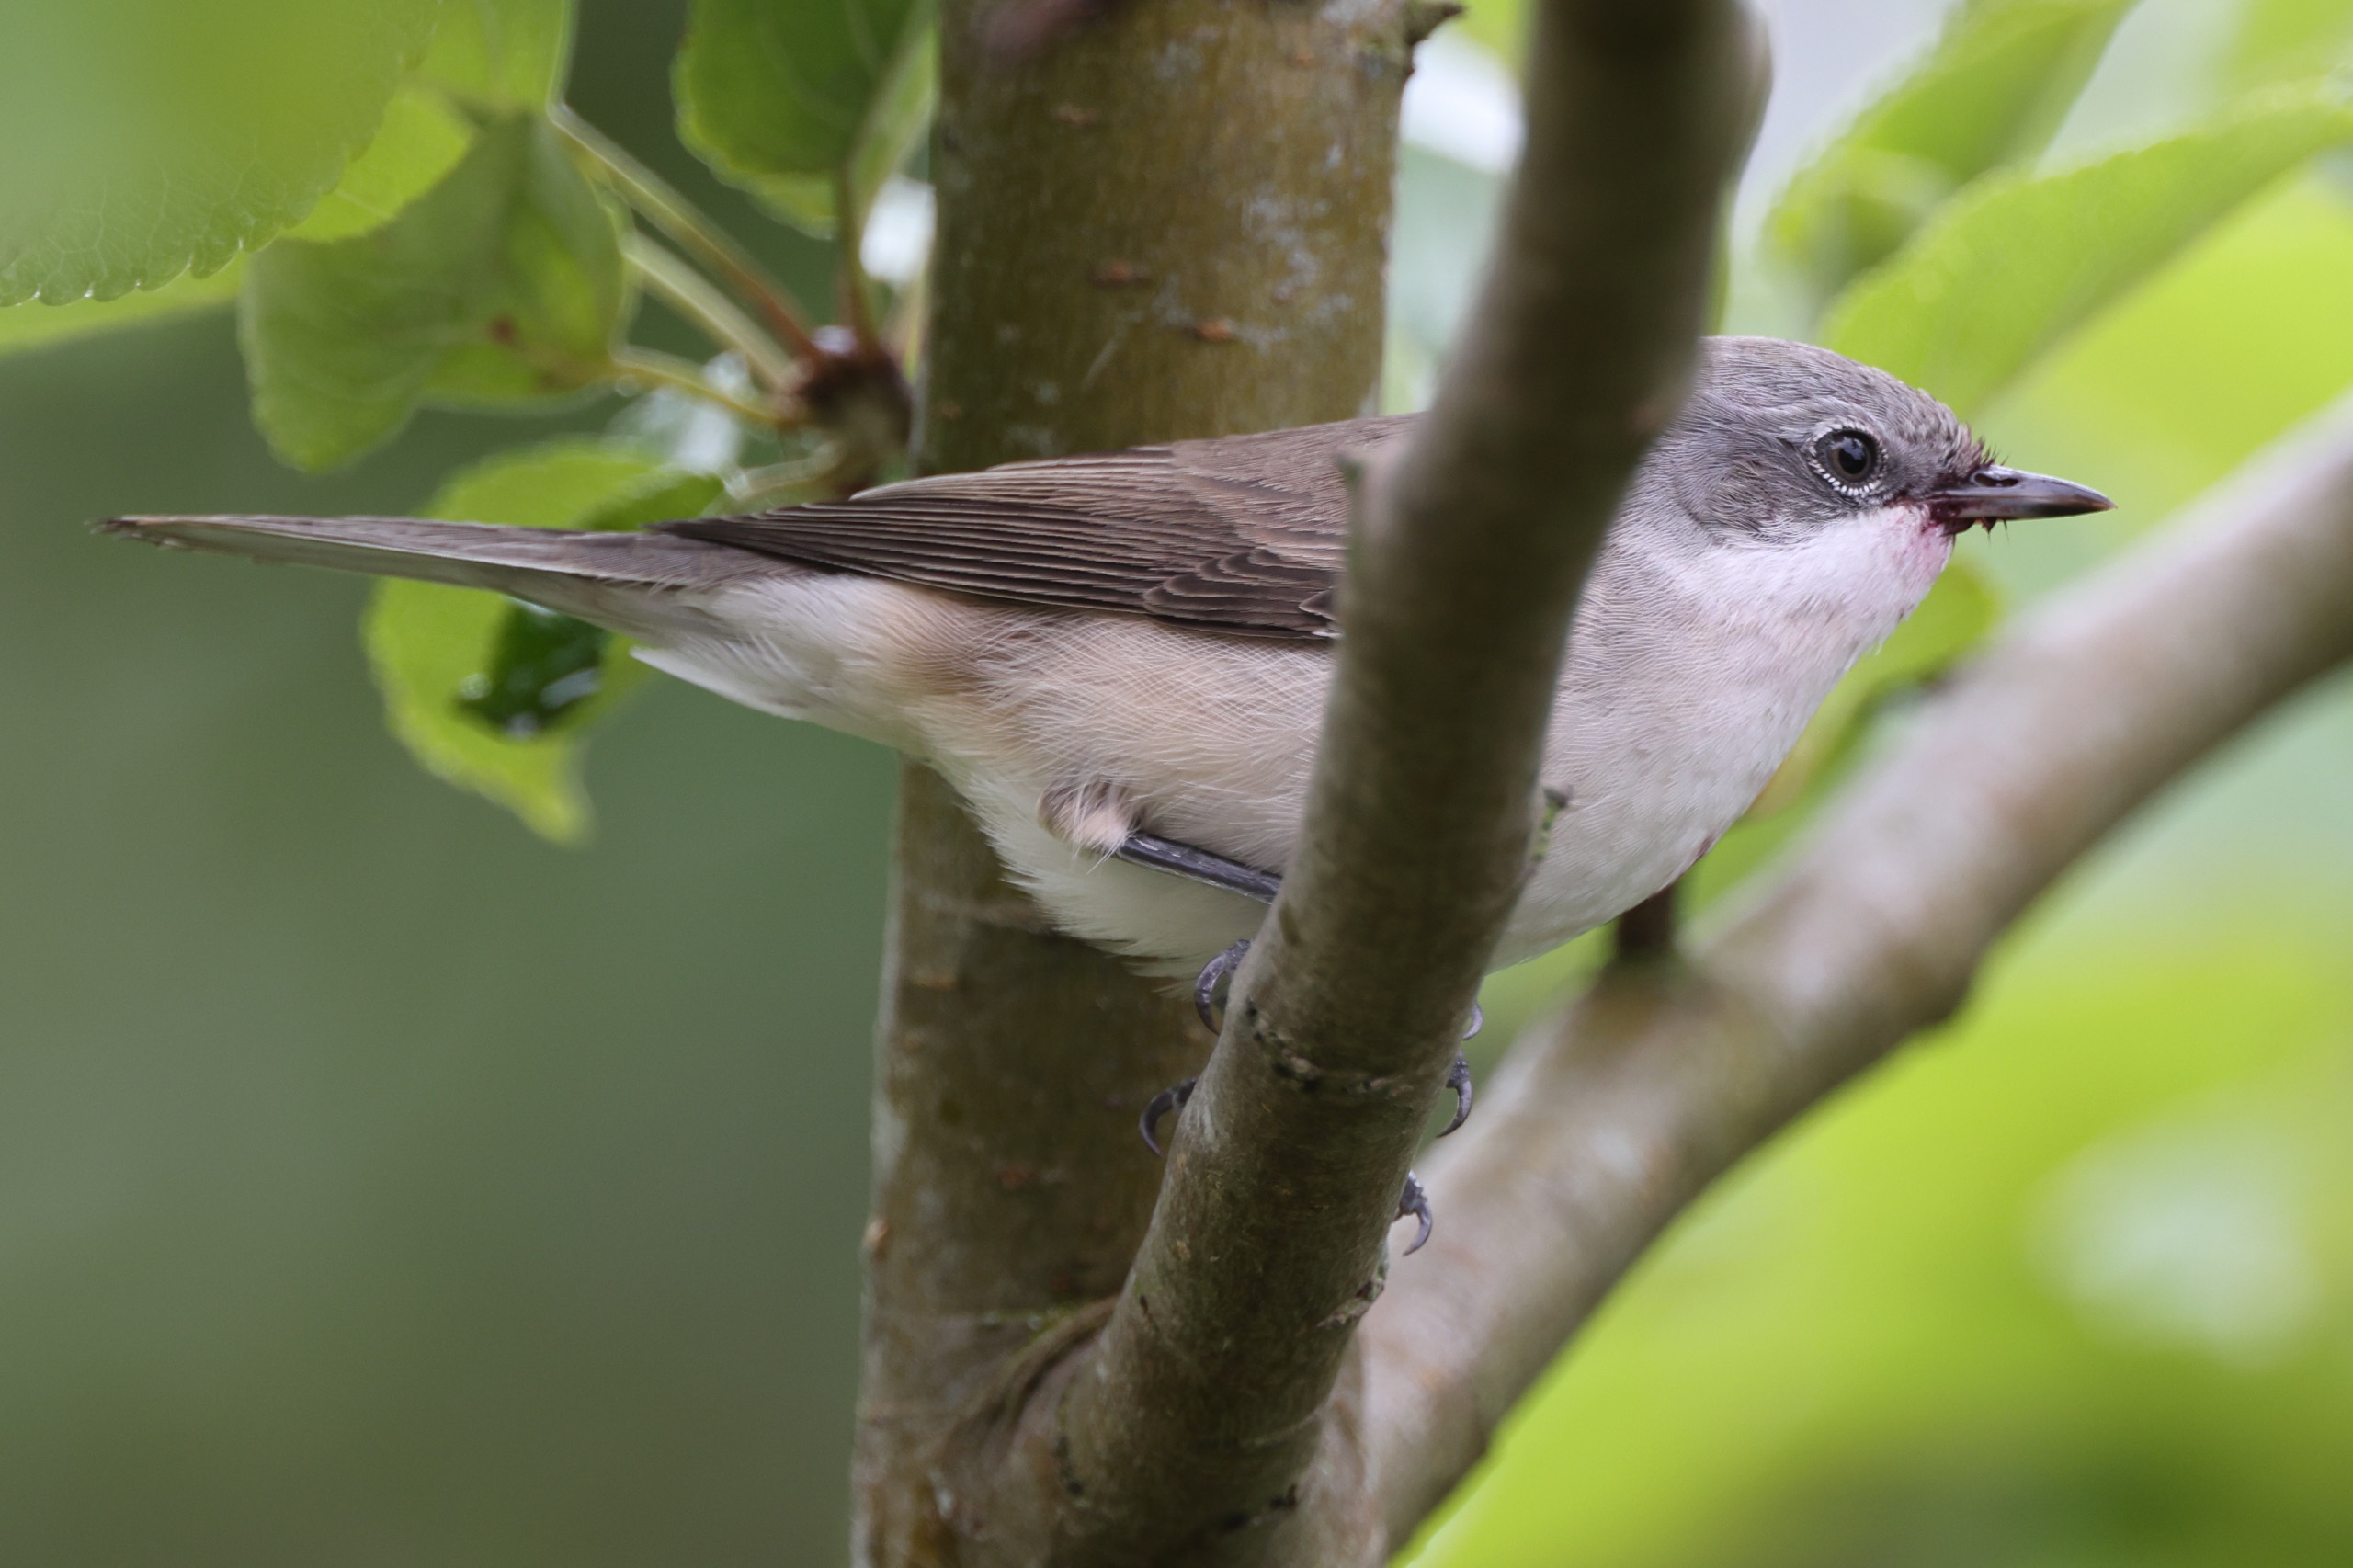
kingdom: Animalia
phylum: Chordata
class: Aves
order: Passeriformes
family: Sylviidae
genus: Sylvia
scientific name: Sylvia curruca
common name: Gærdesanger
